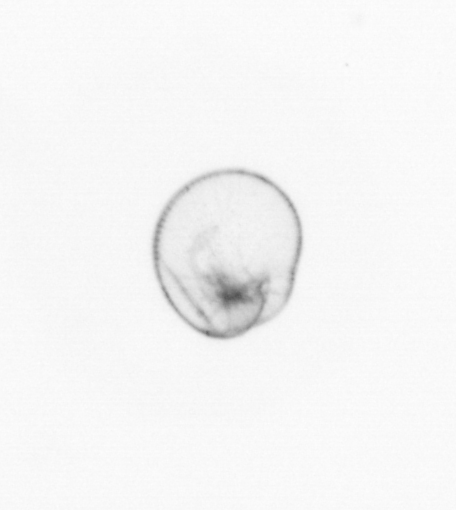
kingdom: Chromista
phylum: Myzozoa
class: Dinophyceae
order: Noctilucales
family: Noctilucaceae
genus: Noctiluca
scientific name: Noctiluca scintillans
